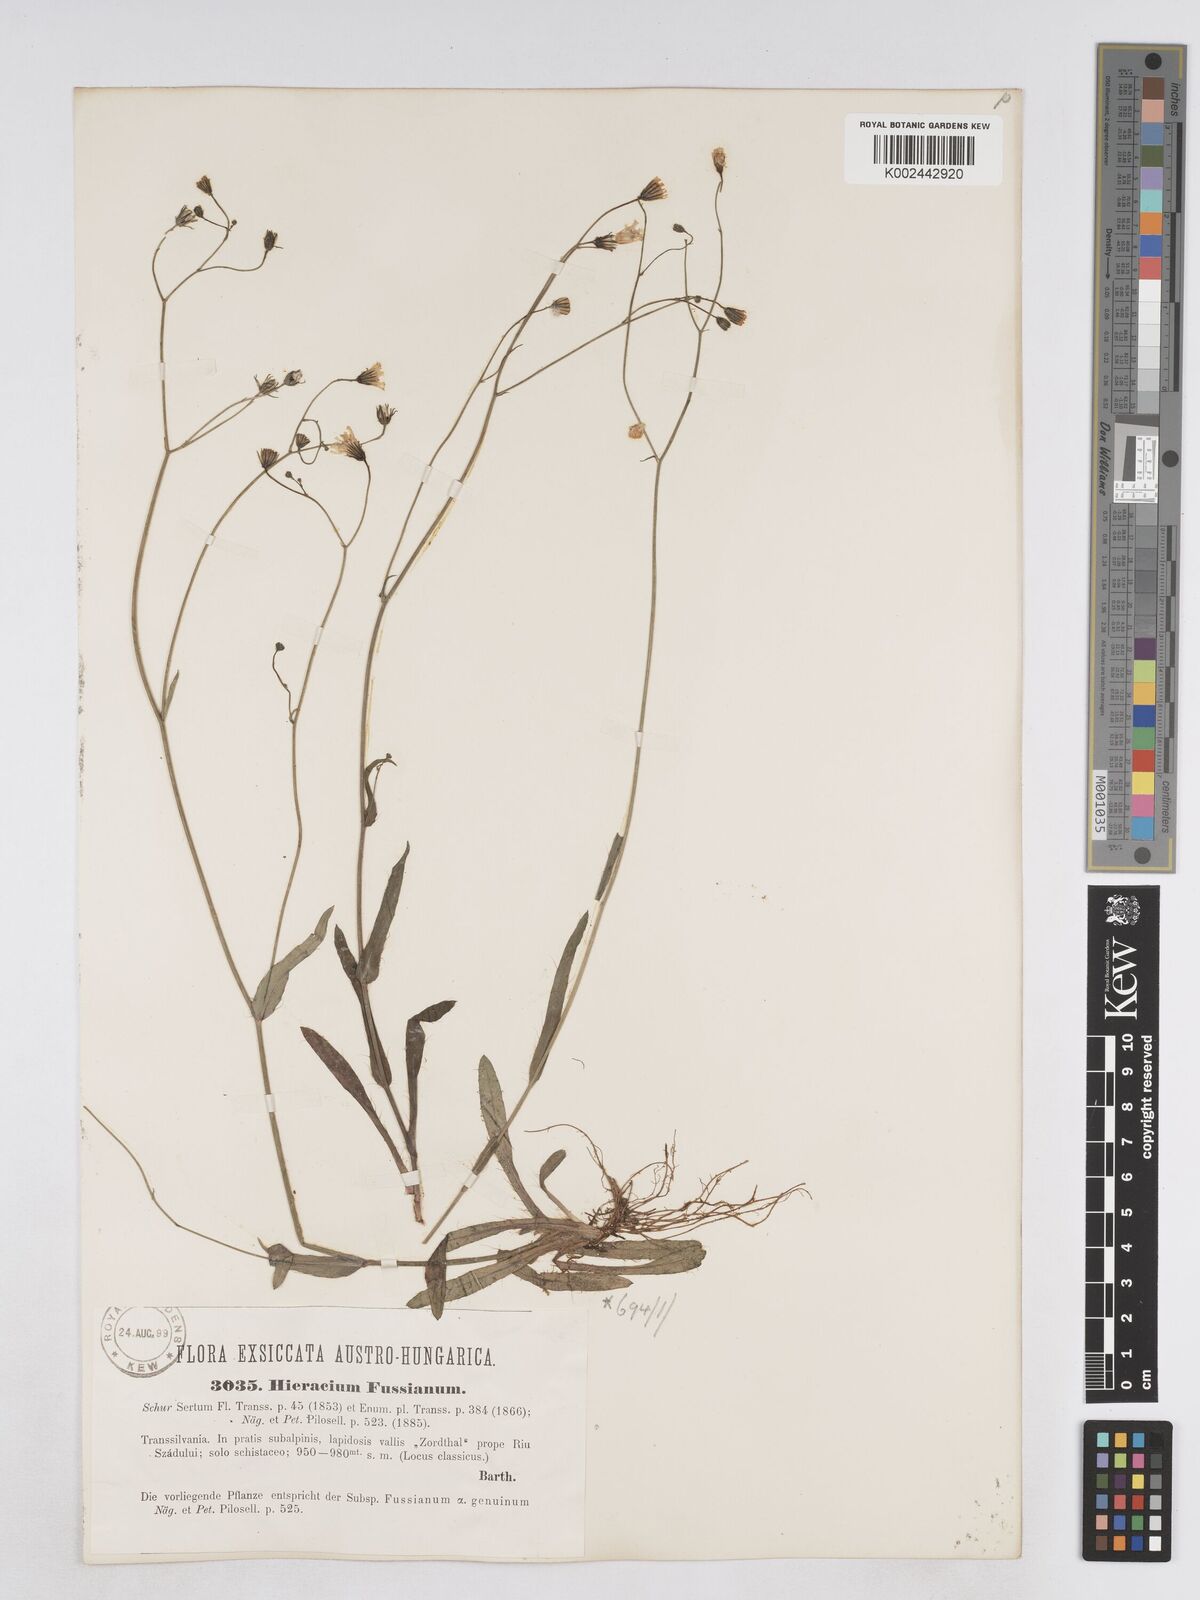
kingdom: Plantae
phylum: Tracheophyta
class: Magnoliopsida
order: Asterales
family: Asteraceae
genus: Pilosella
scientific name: Pilosella pavichii
